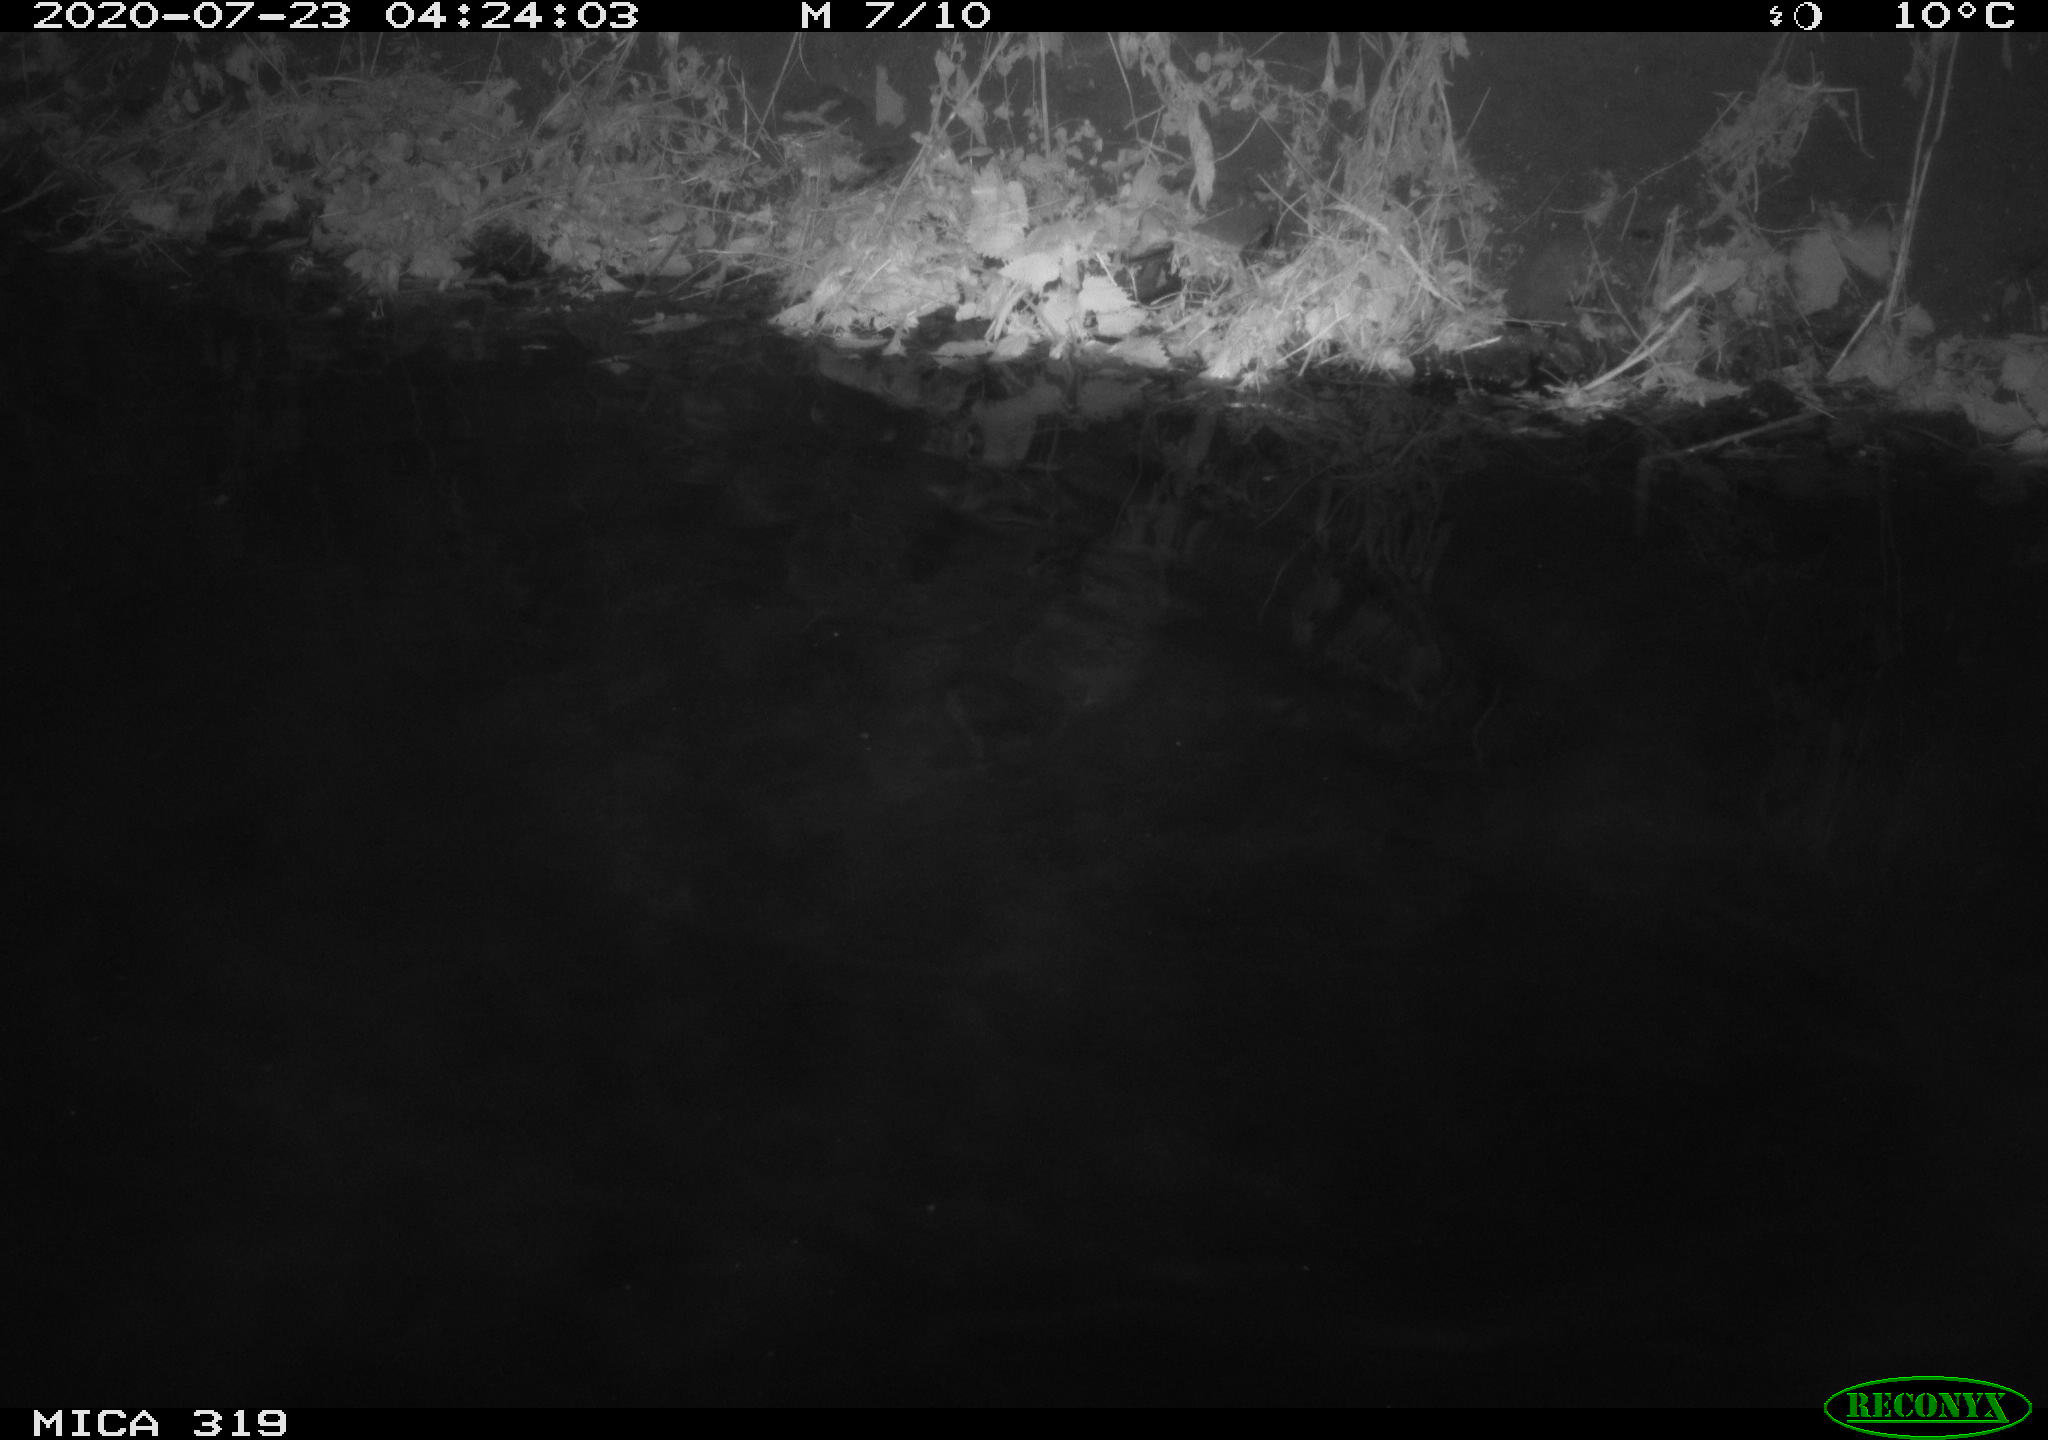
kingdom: Animalia
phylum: Chordata
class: Aves
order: Anseriformes
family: Anatidae
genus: Anas
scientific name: Anas platyrhynchos
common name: Mallard
